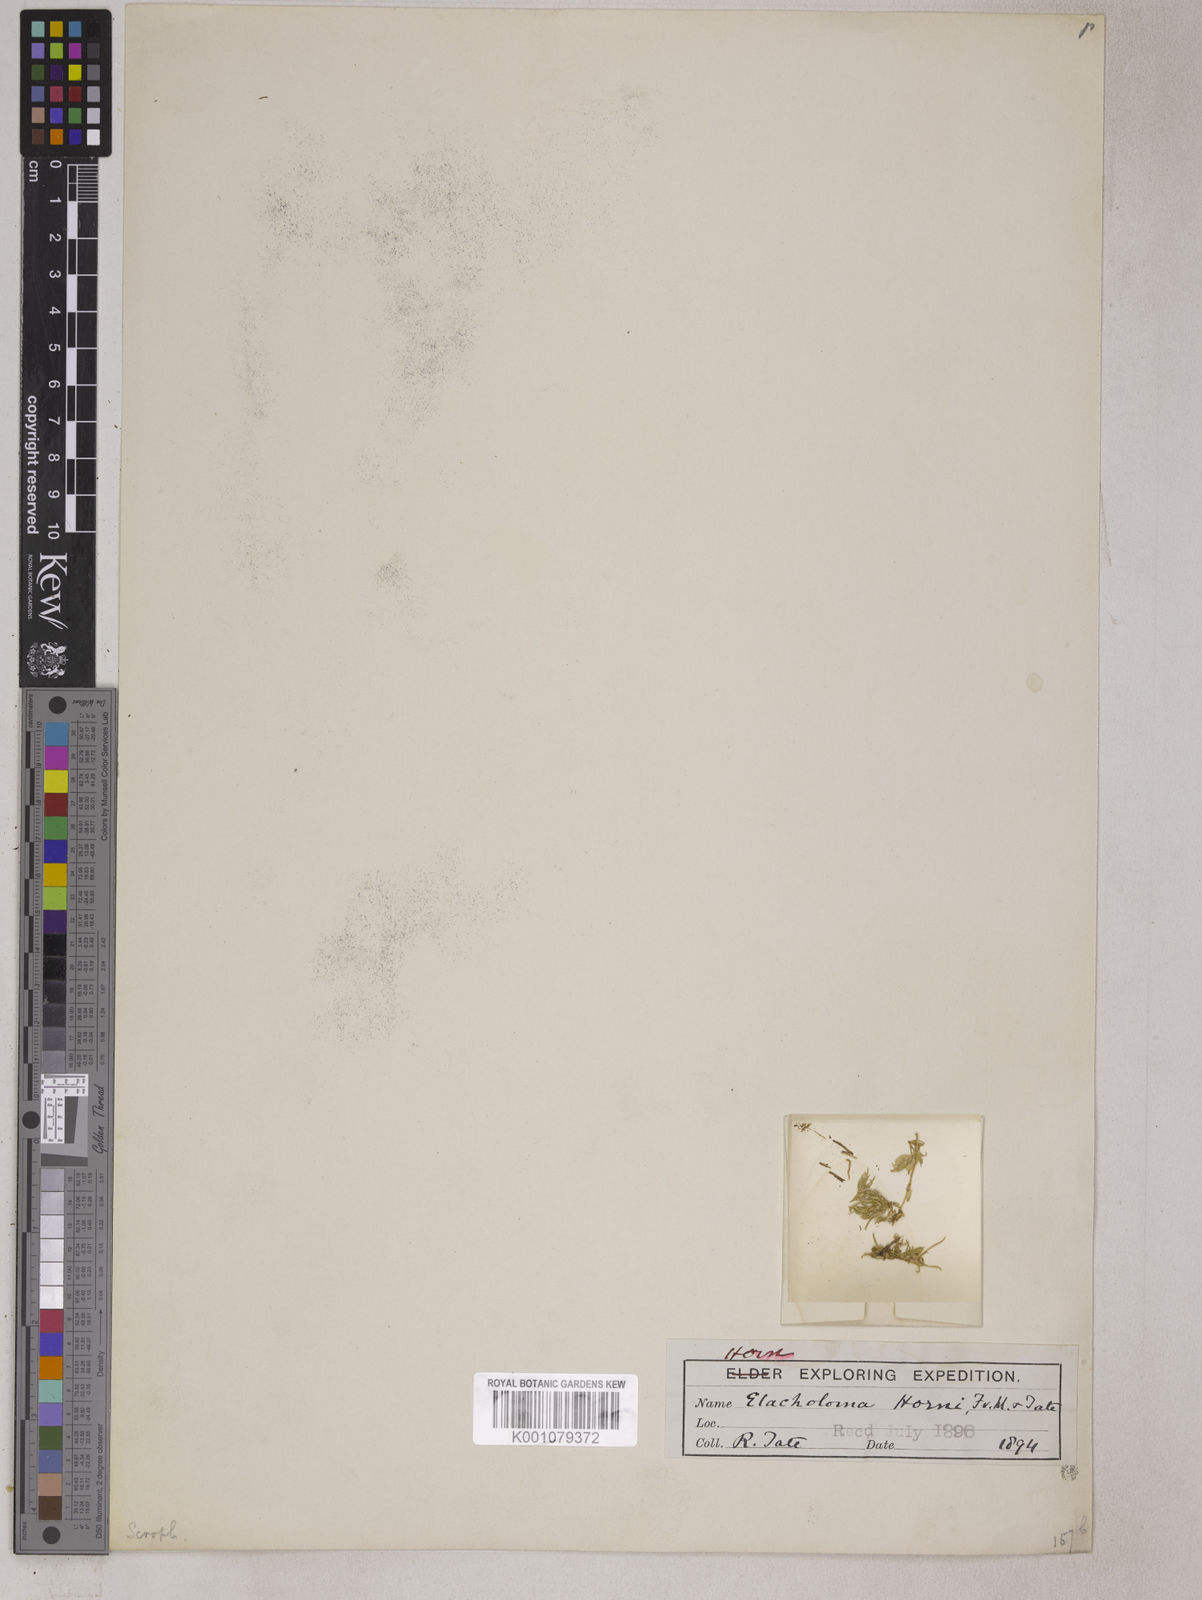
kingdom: Plantae
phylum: Tracheophyta
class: Magnoliopsida
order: Lamiales
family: Phrymaceae
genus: Elacholoma
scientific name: Elacholoma hornii
